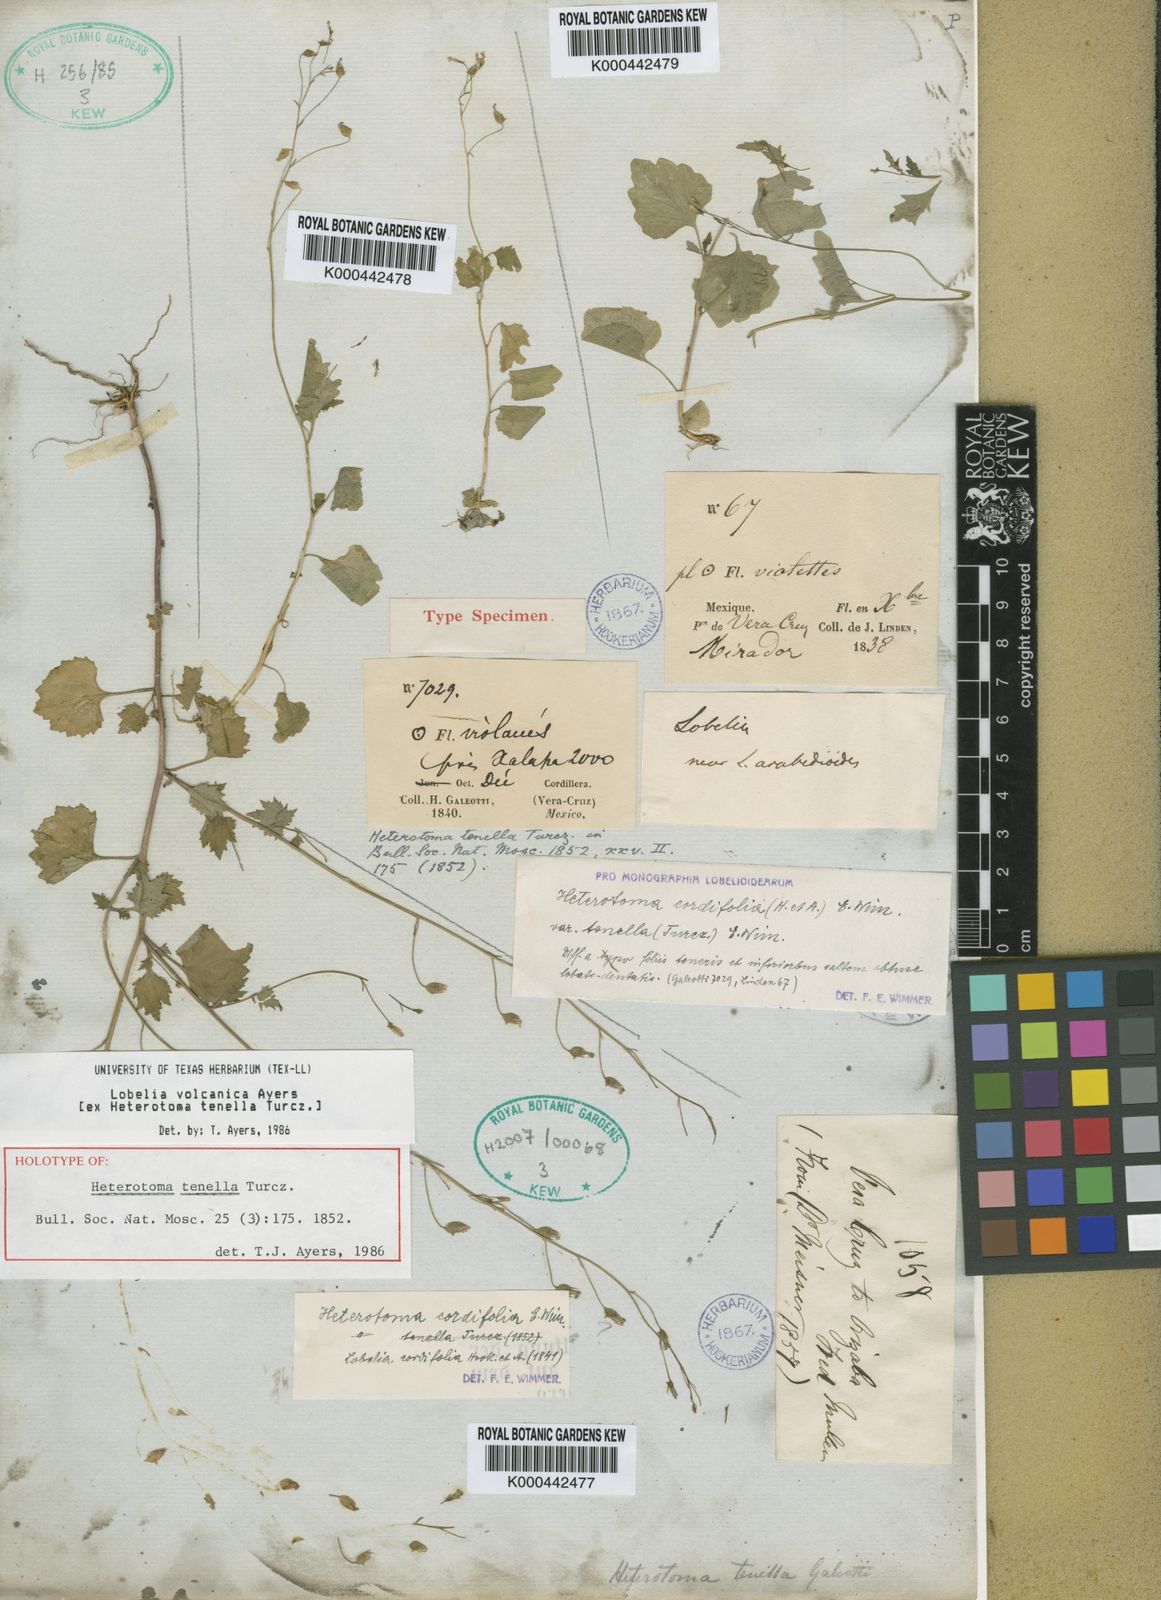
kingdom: Plantae
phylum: Tracheophyta
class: Magnoliopsida
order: Asterales
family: Campanulaceae
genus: Lobelia
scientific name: Lobelia volcanica
